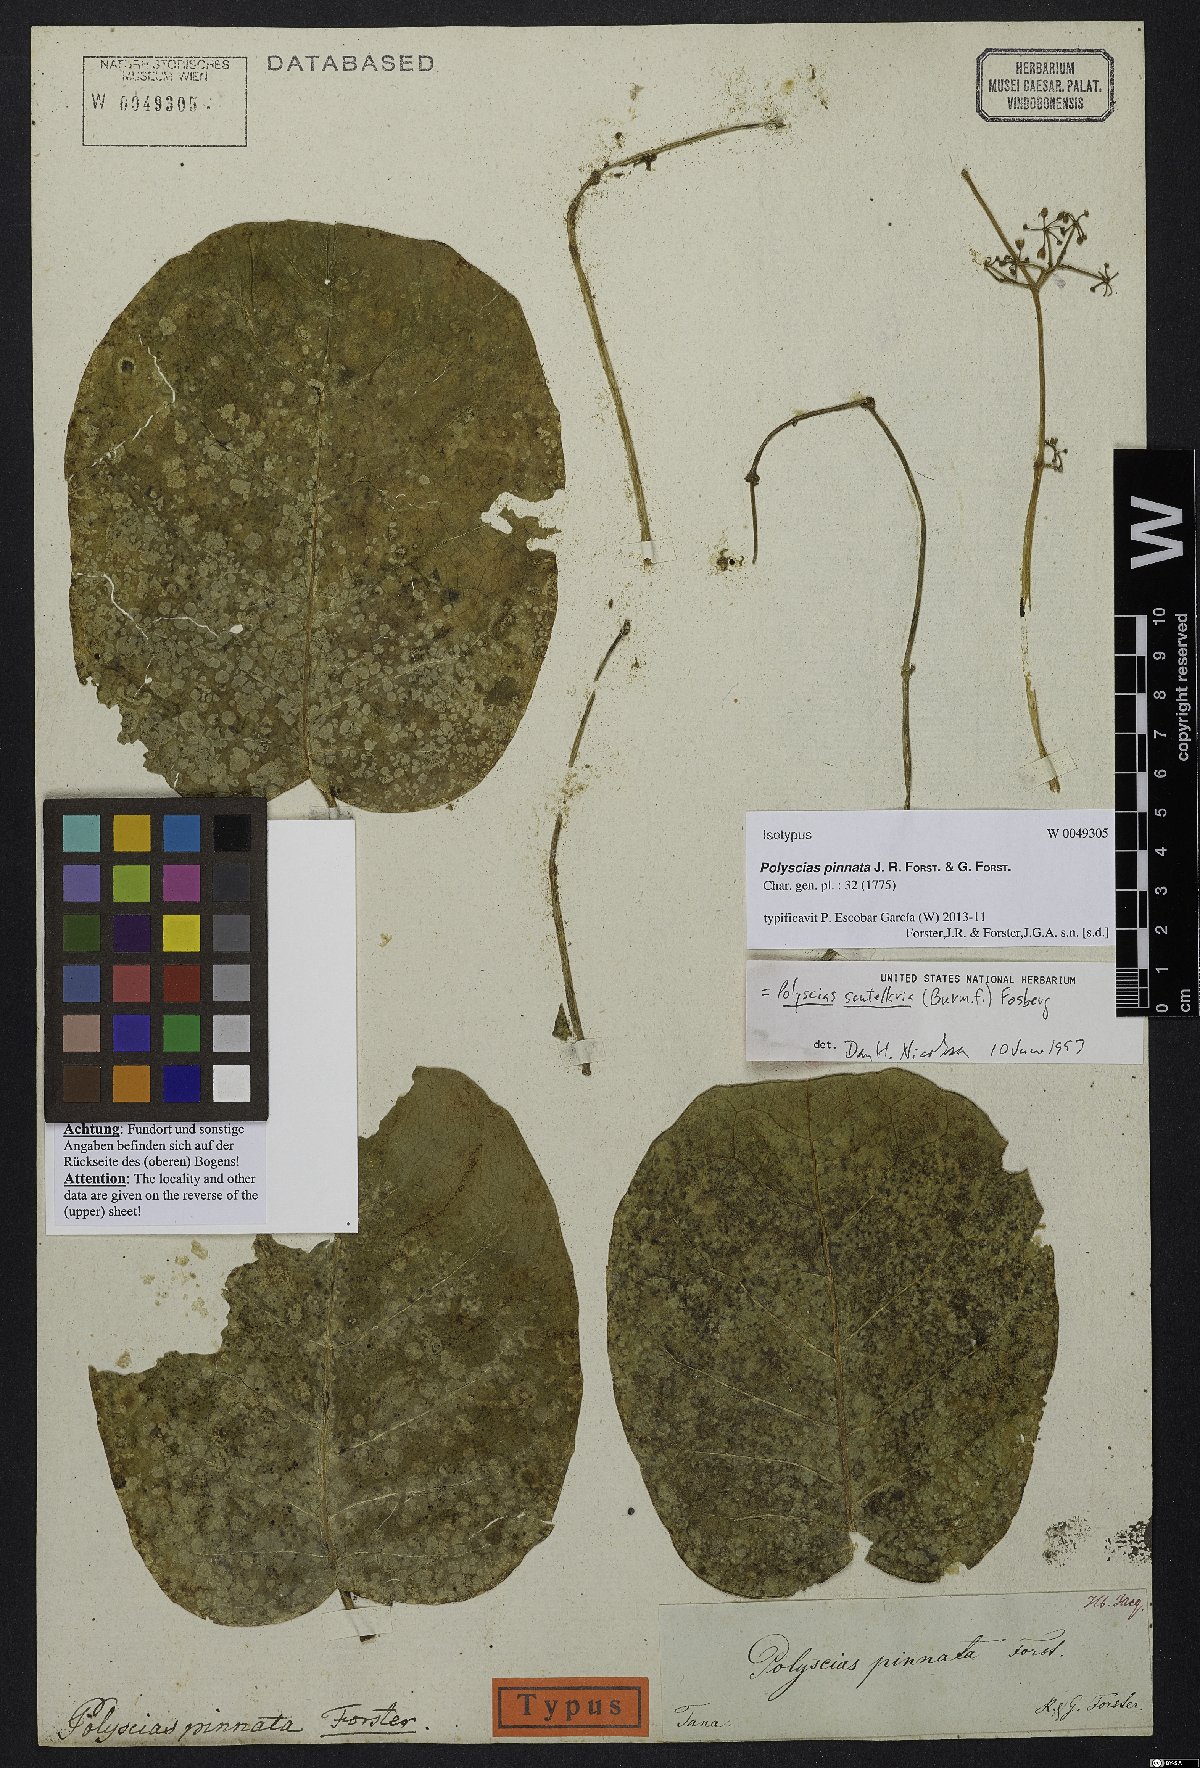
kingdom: Plantae
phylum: Tracheophyta
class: Magnoliopsida
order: Apiales
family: Araliaceae
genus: Polyscias
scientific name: Polyscias pinnata
